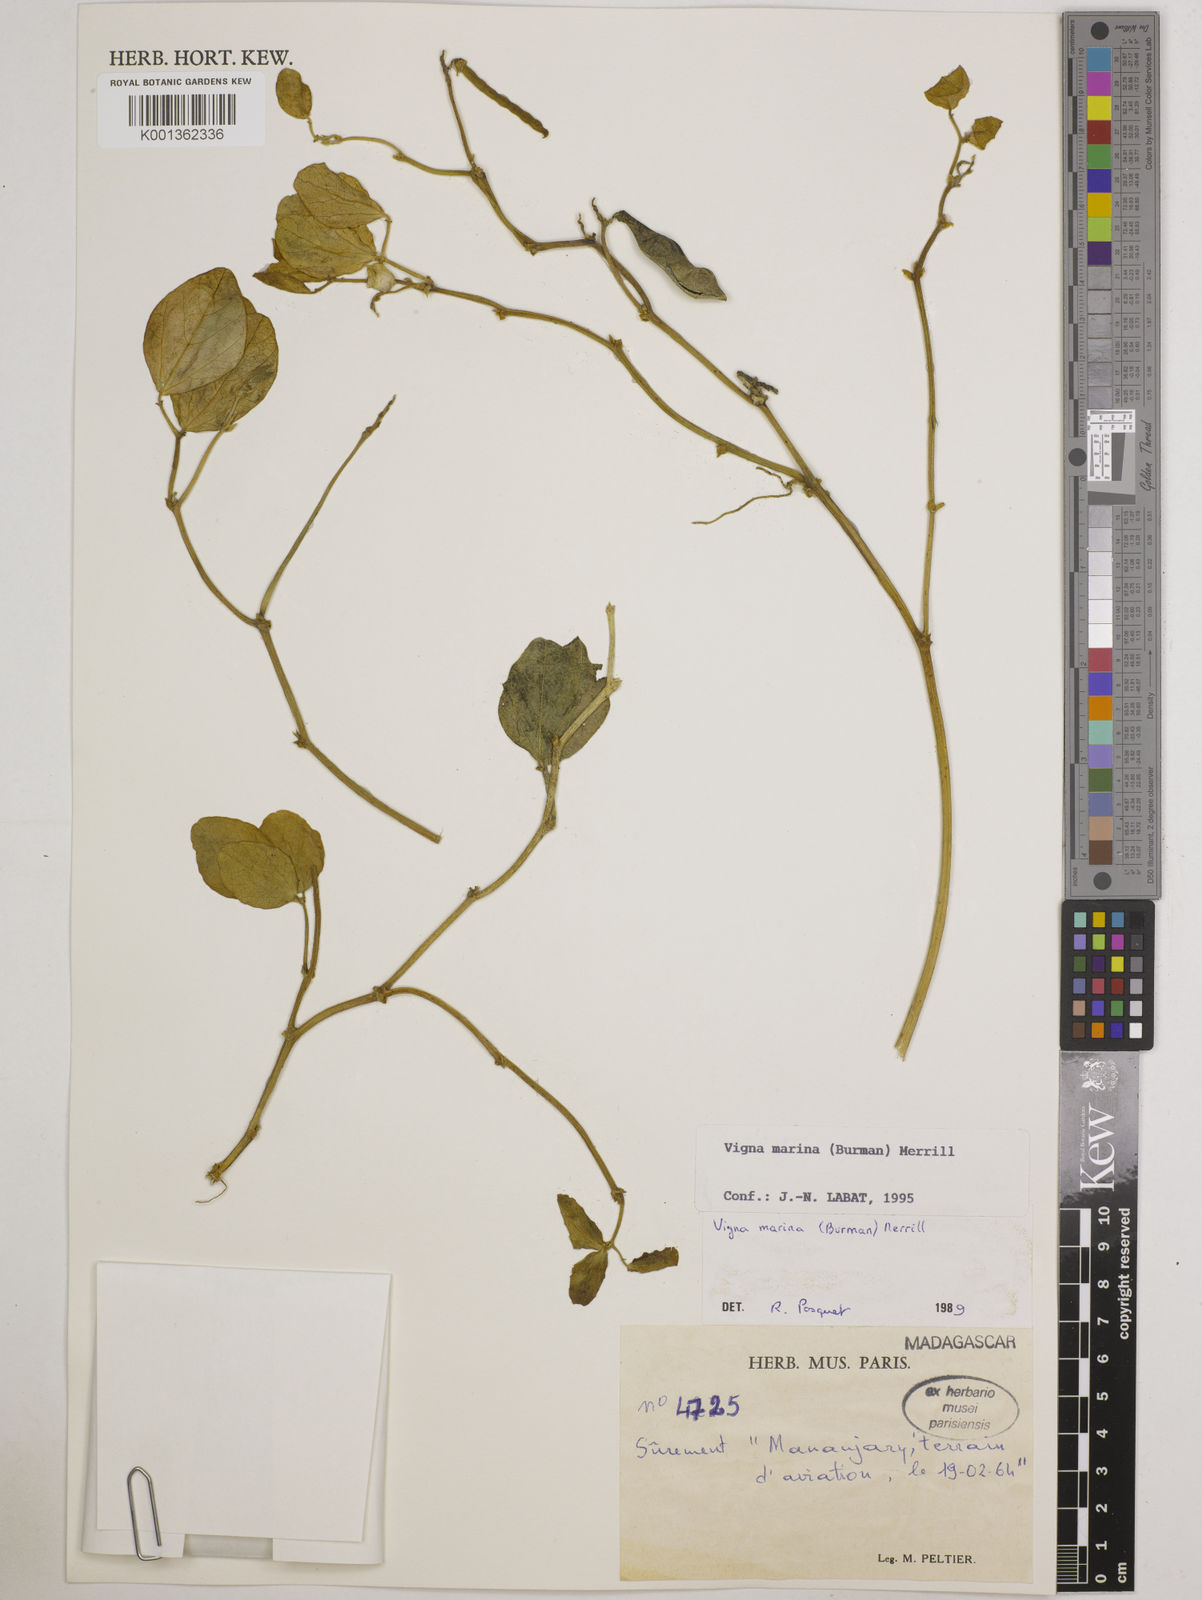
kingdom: Plantae
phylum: Tracheophyta
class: Magnoliopsida
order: Fabales
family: Fabaceae
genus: Vigna
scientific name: Vigna marina
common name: Dune-bean
